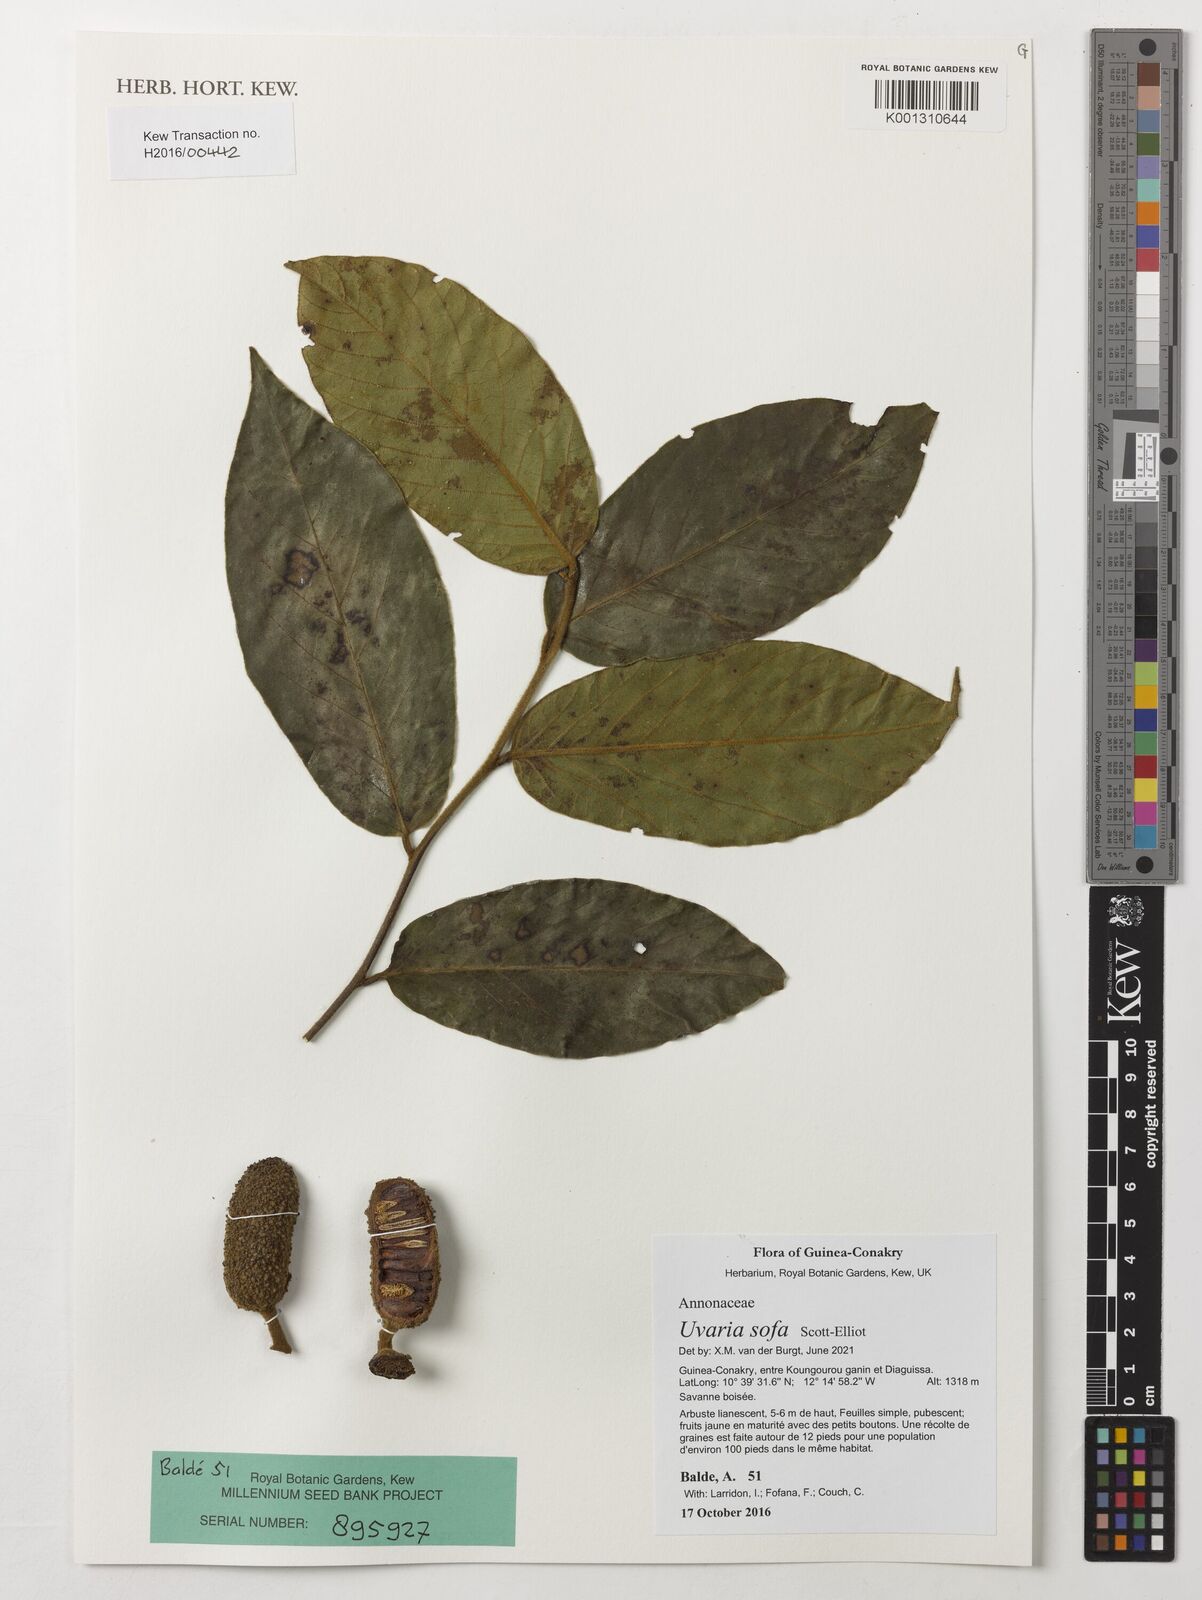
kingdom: Plantae
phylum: Tracheophyta
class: Magnoliopsida
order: Magnoliales
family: Annonaceae
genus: Uvaria
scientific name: Uvaria sofa
